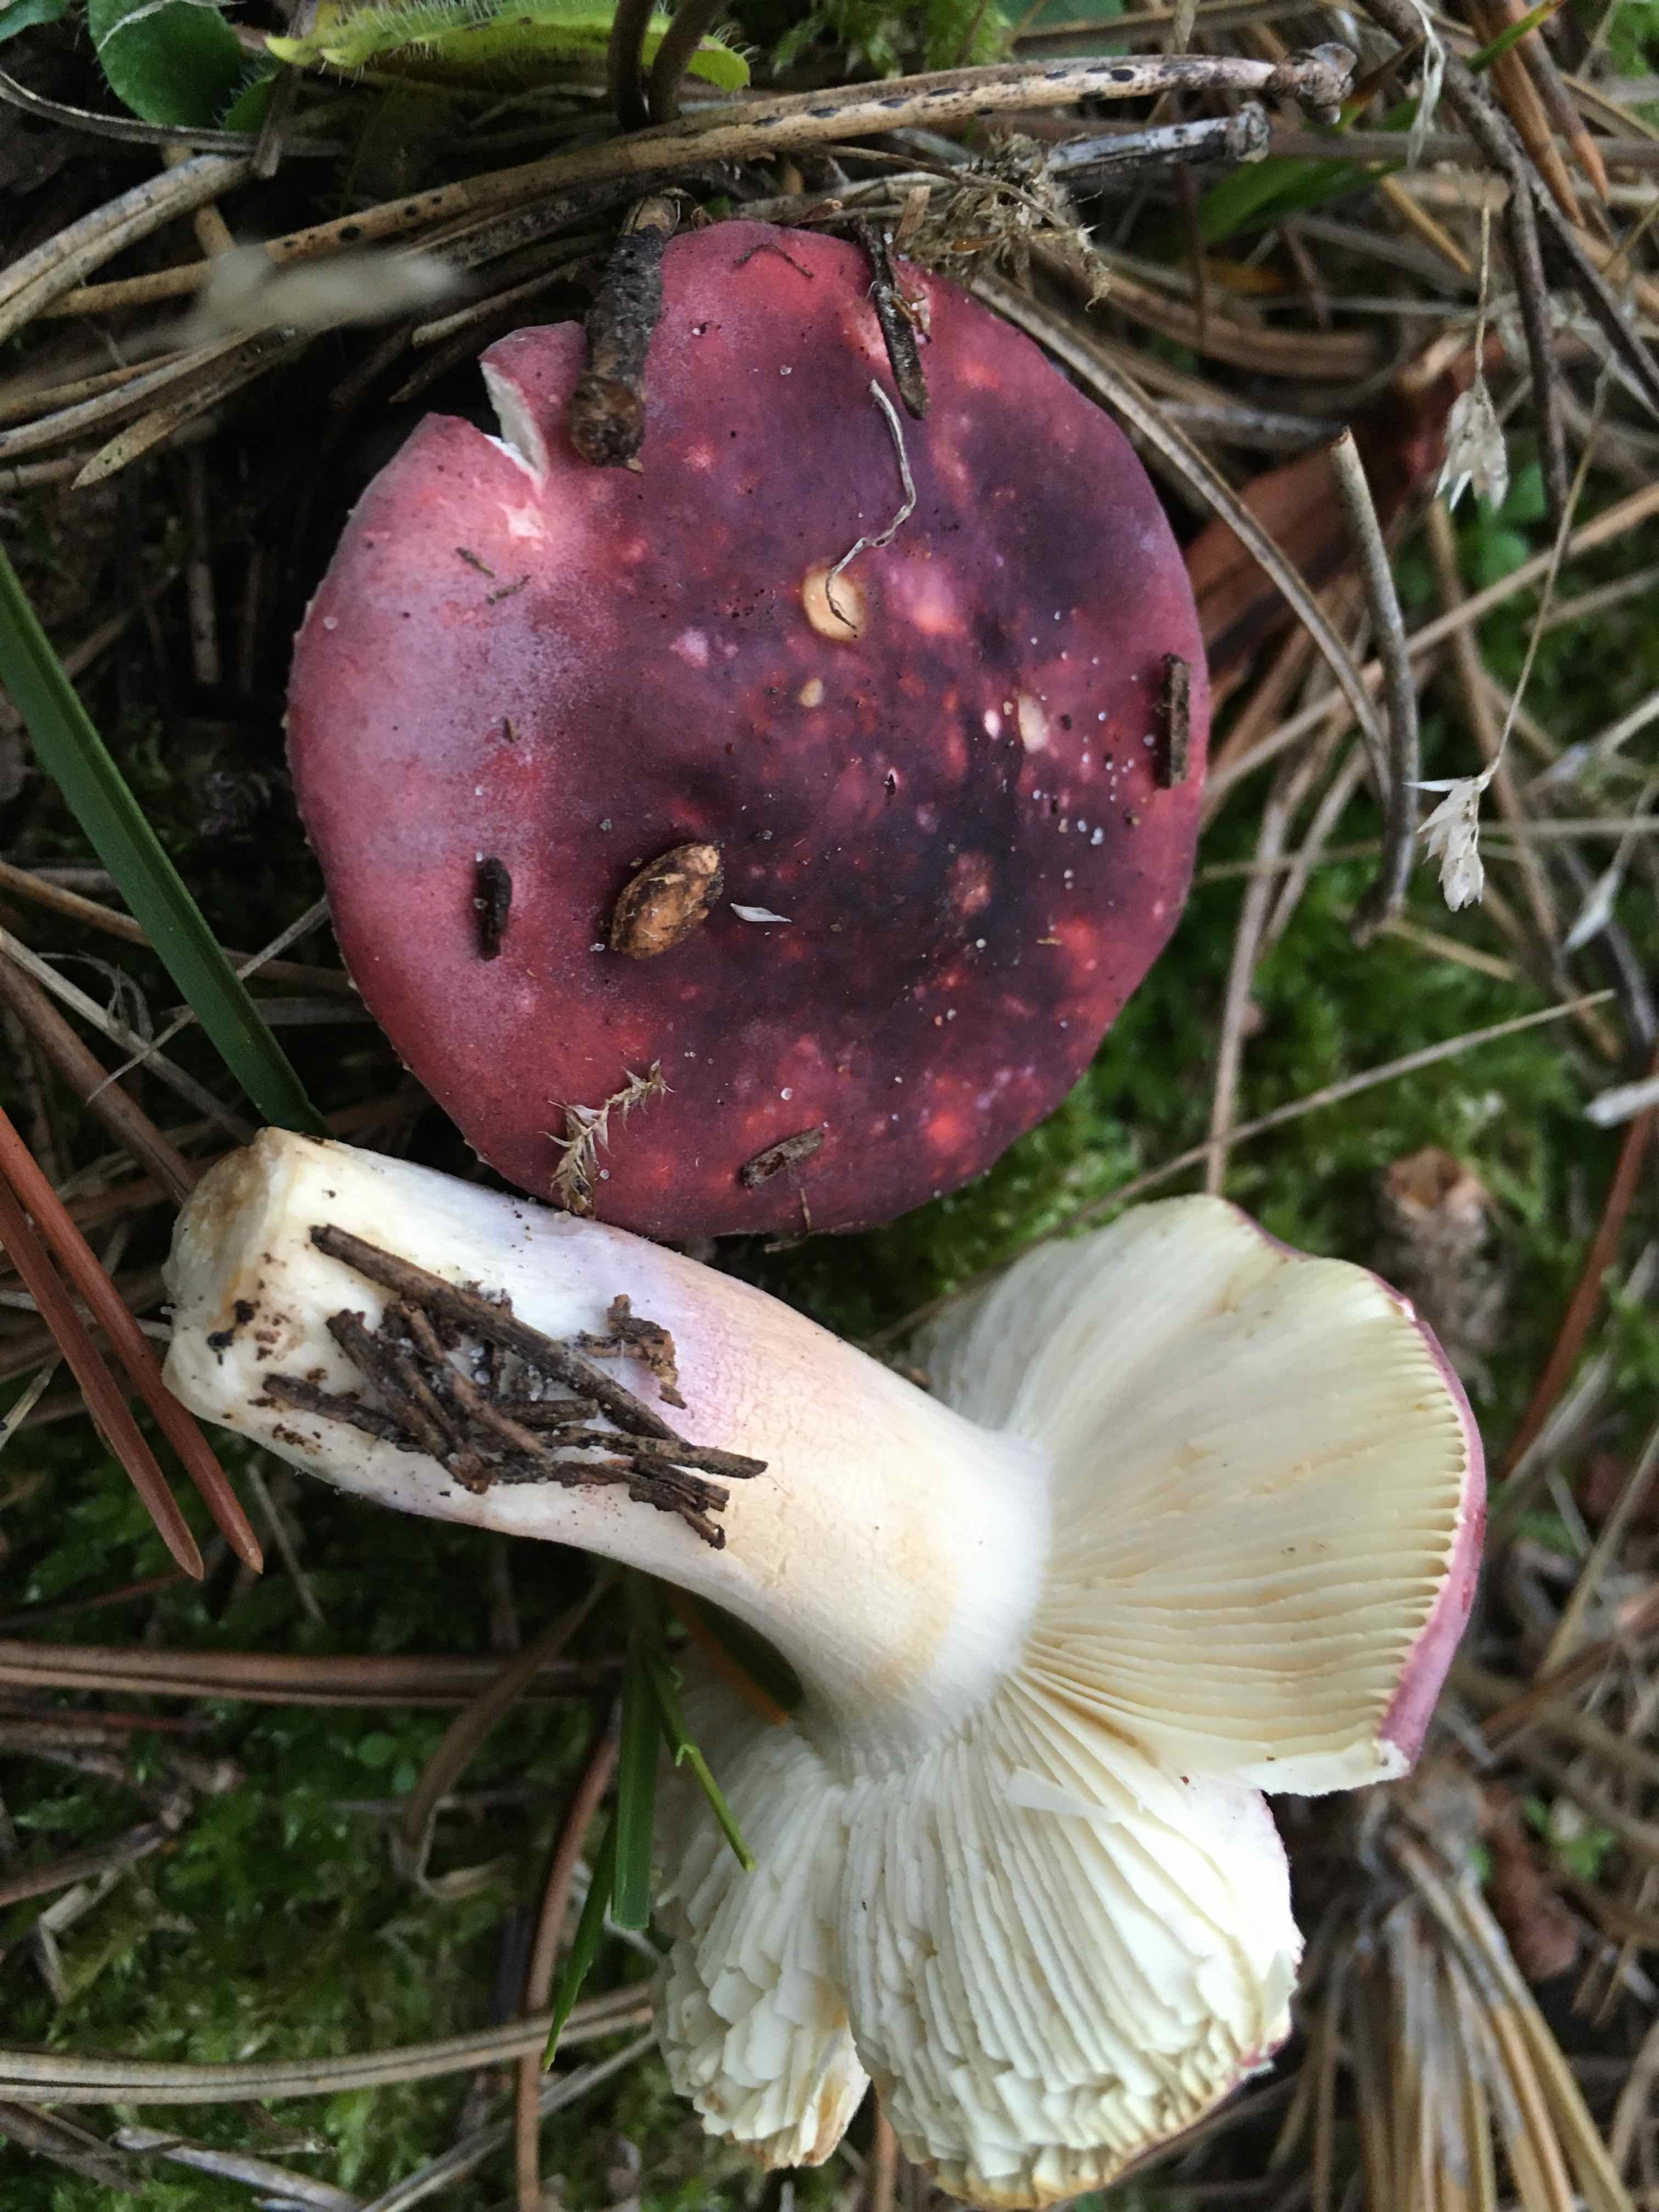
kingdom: Fungi
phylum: Basidiomycota
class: Agaricomycetes
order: Russulales
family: Russulaceae
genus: Russula
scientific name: Russula sardonia
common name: citronbladet skørhat
